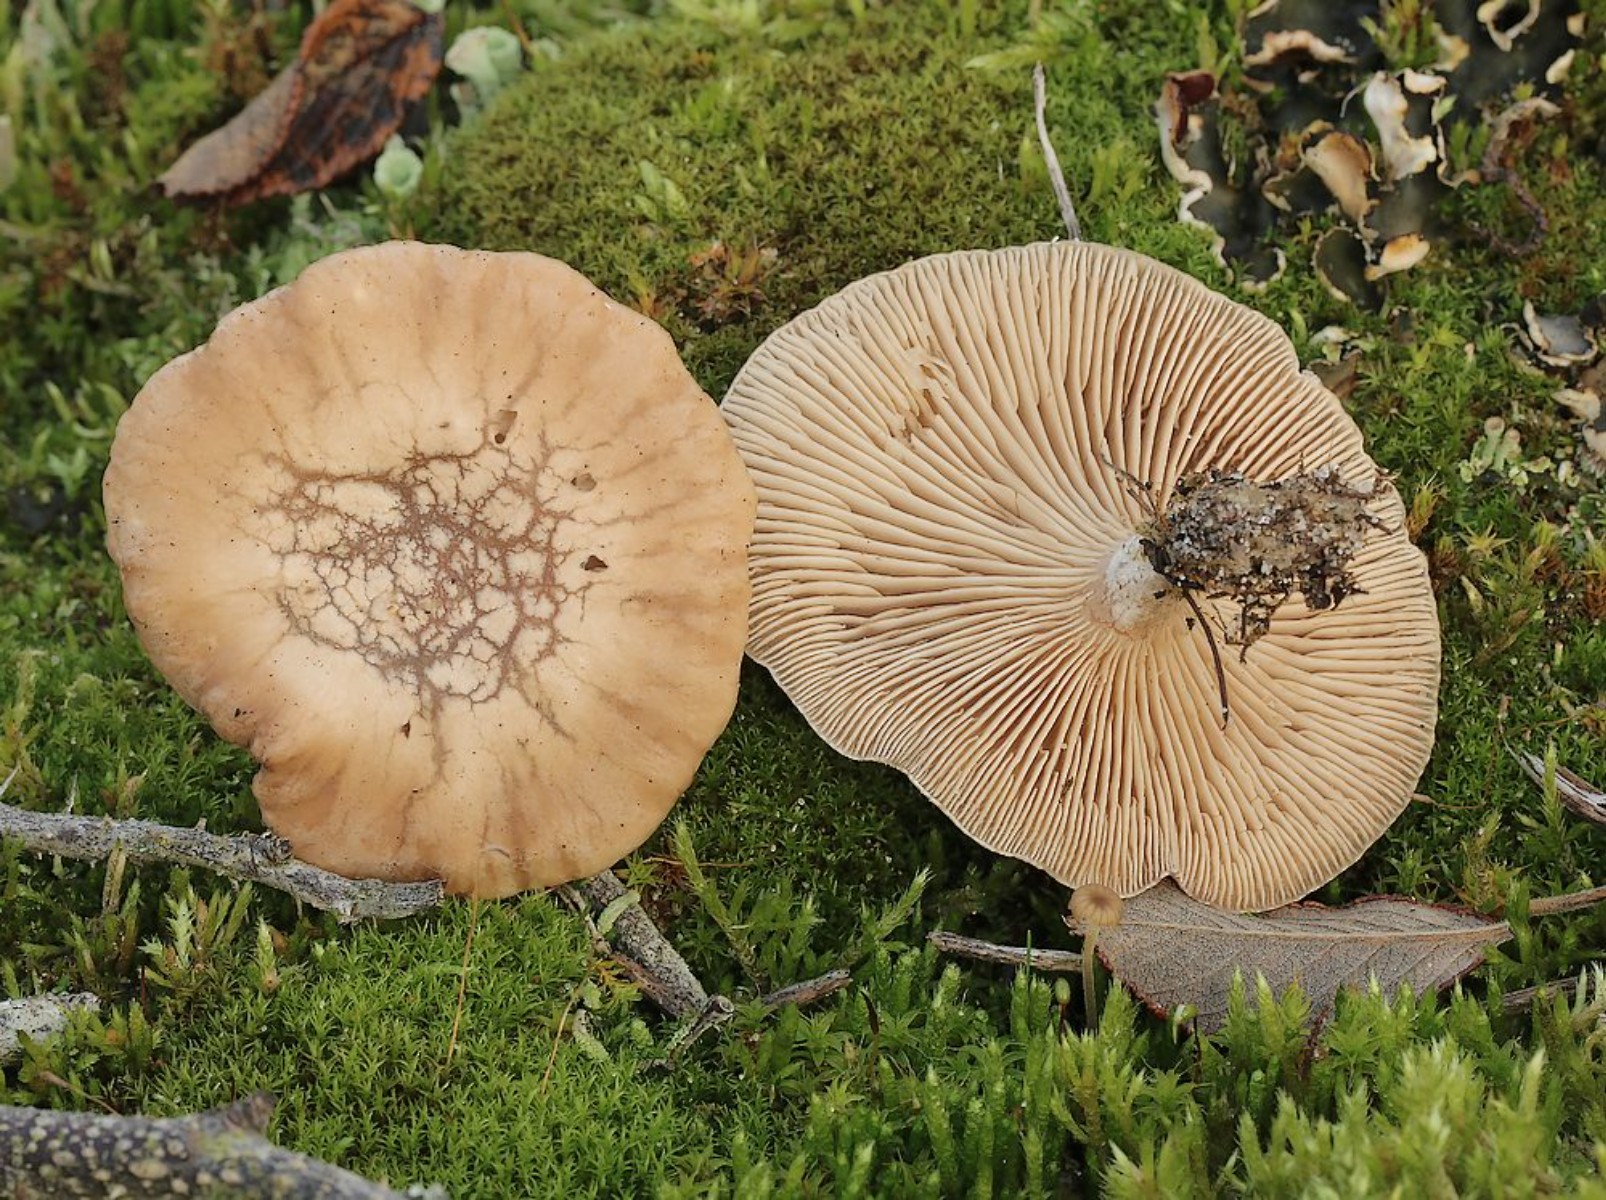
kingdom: Fungi
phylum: Basidiomycota
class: Agaricomycetes
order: Agaricales
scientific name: Agaricales
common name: champignonordenen
